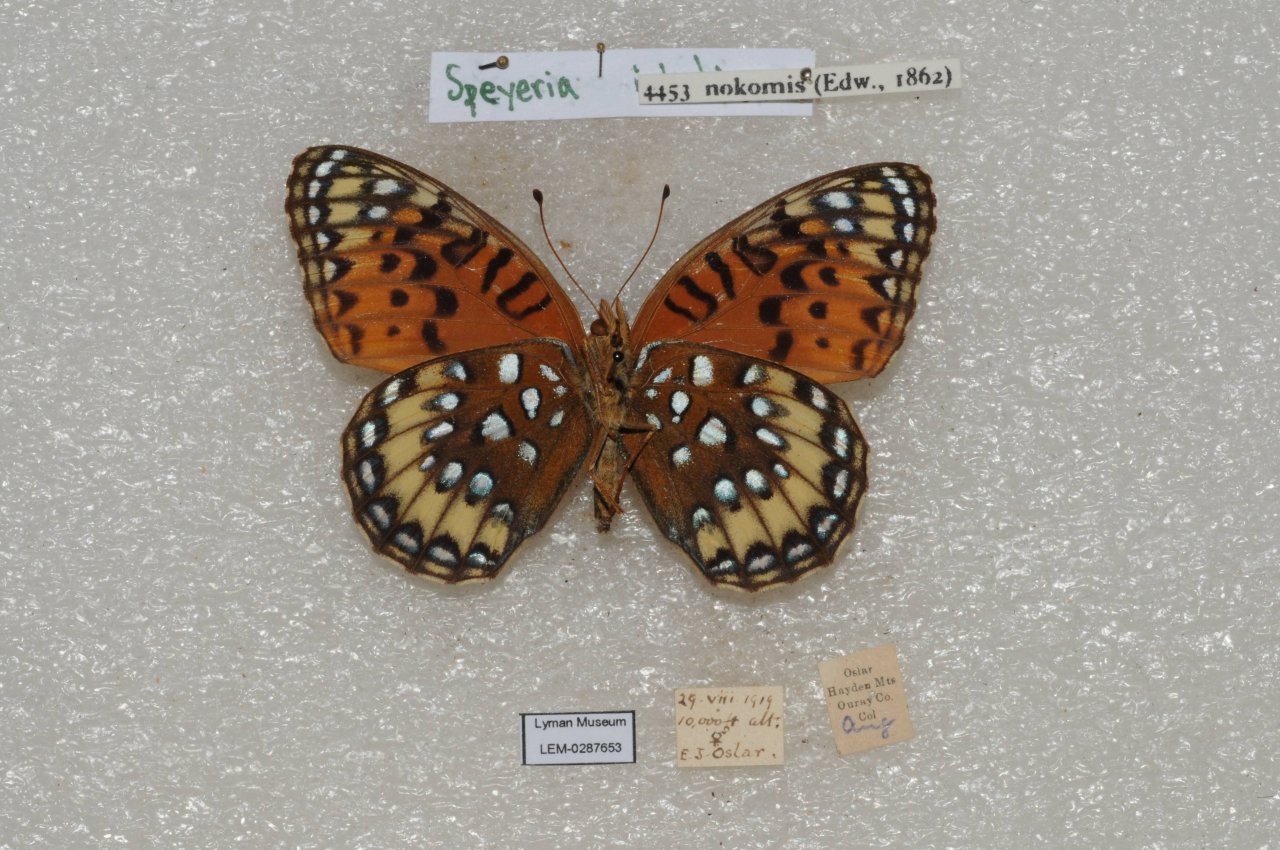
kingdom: Animalia
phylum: Arthropoda
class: Insecta
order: Lepidoptera
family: Nymphalidae
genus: Speyeria
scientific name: Speyeria nokomis
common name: Nokomis Fritillary
